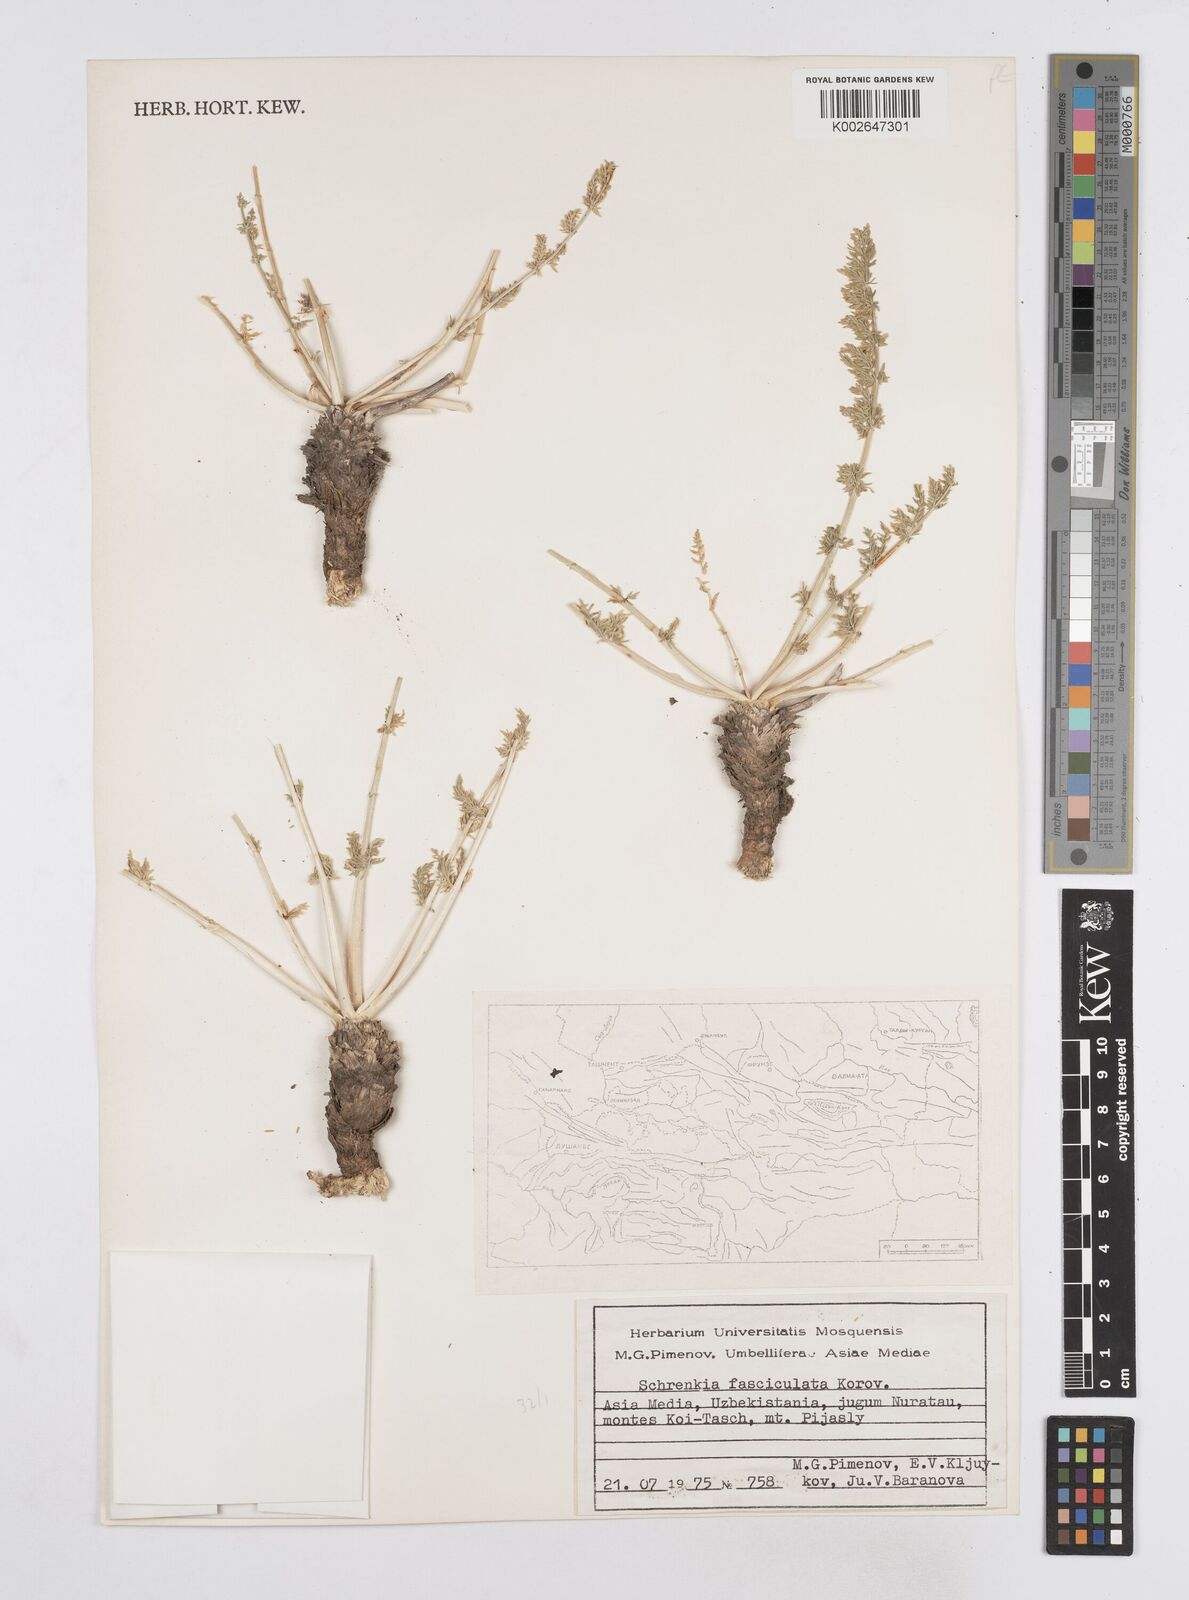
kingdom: Plantae
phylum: Tracheophyta
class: Magnoliopsida
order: Apiales
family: Apiaceae
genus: Schrenkia
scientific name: Schrenkia pungens
